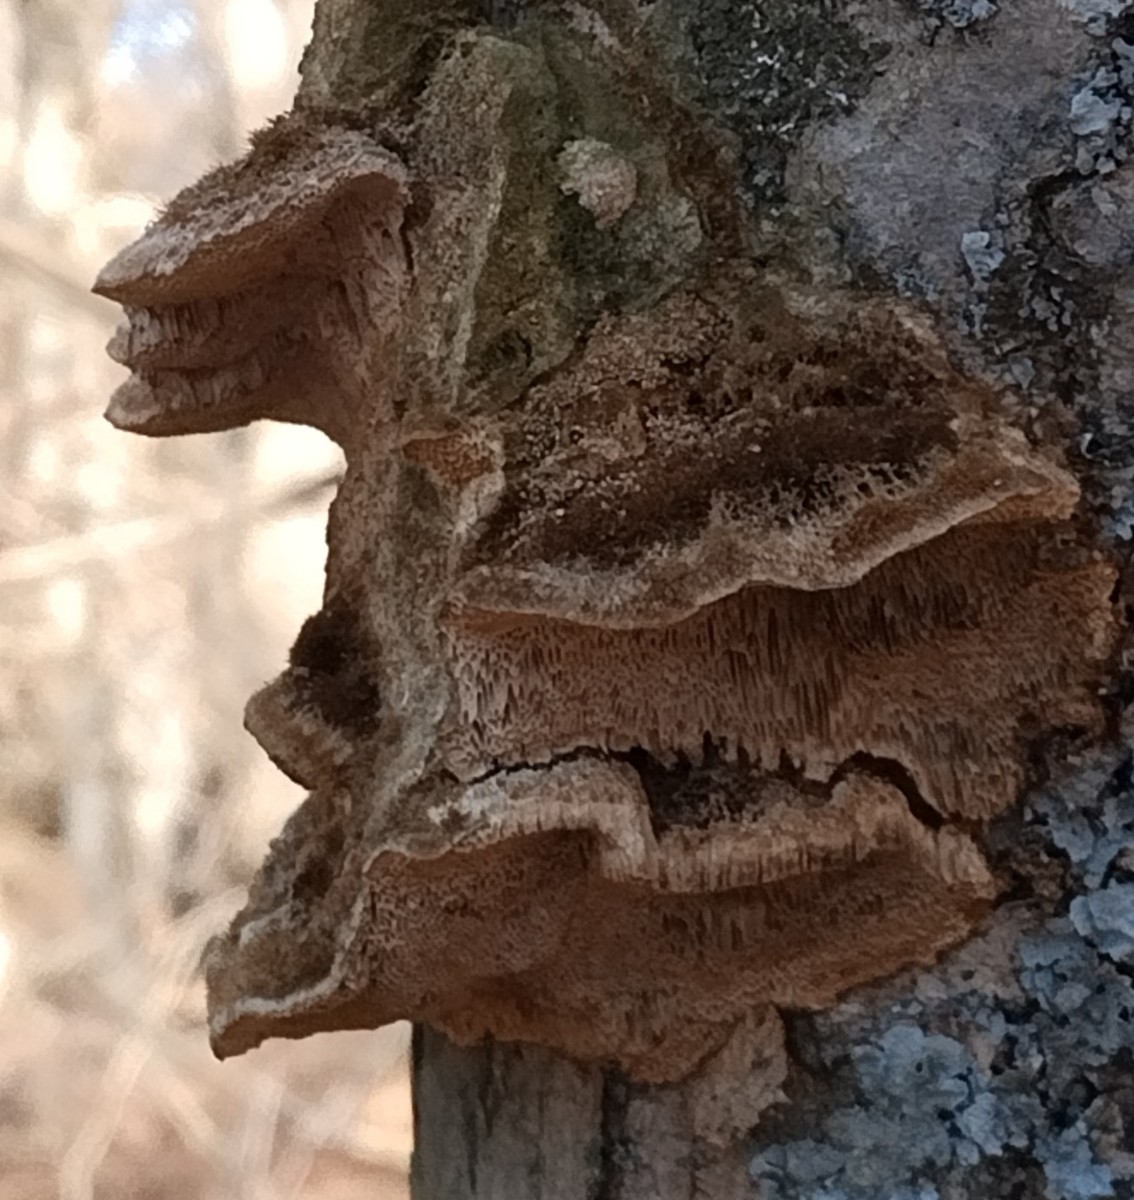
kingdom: Fungi
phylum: Basidiomycota
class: Agaricomycetes
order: Polyporales
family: Polyporaceae
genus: Coriolopsis
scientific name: Coriolopsis gallica
